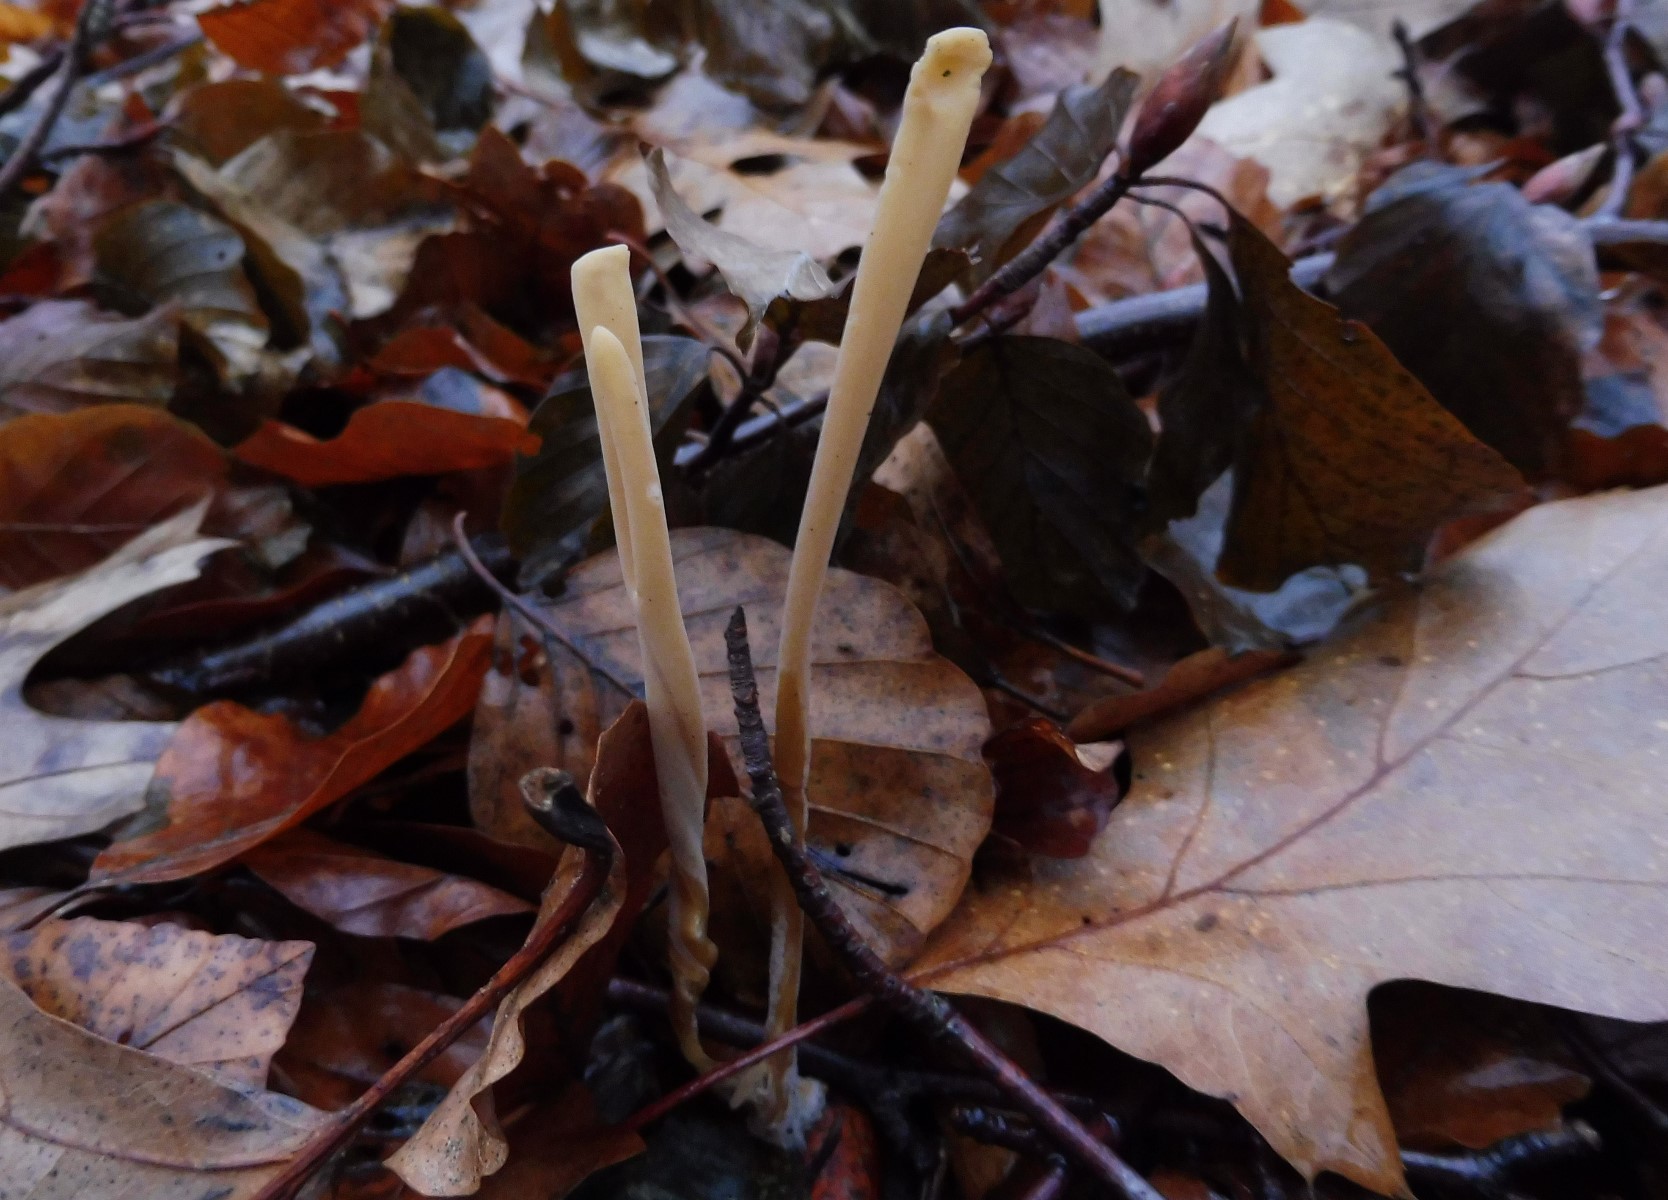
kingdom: Fungi
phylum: Basidiomycota
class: Agaricomycetes
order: Agaricales
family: Typhulaceae
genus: Typhula
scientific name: Typhula fistulosa
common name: pibet rørkølle
